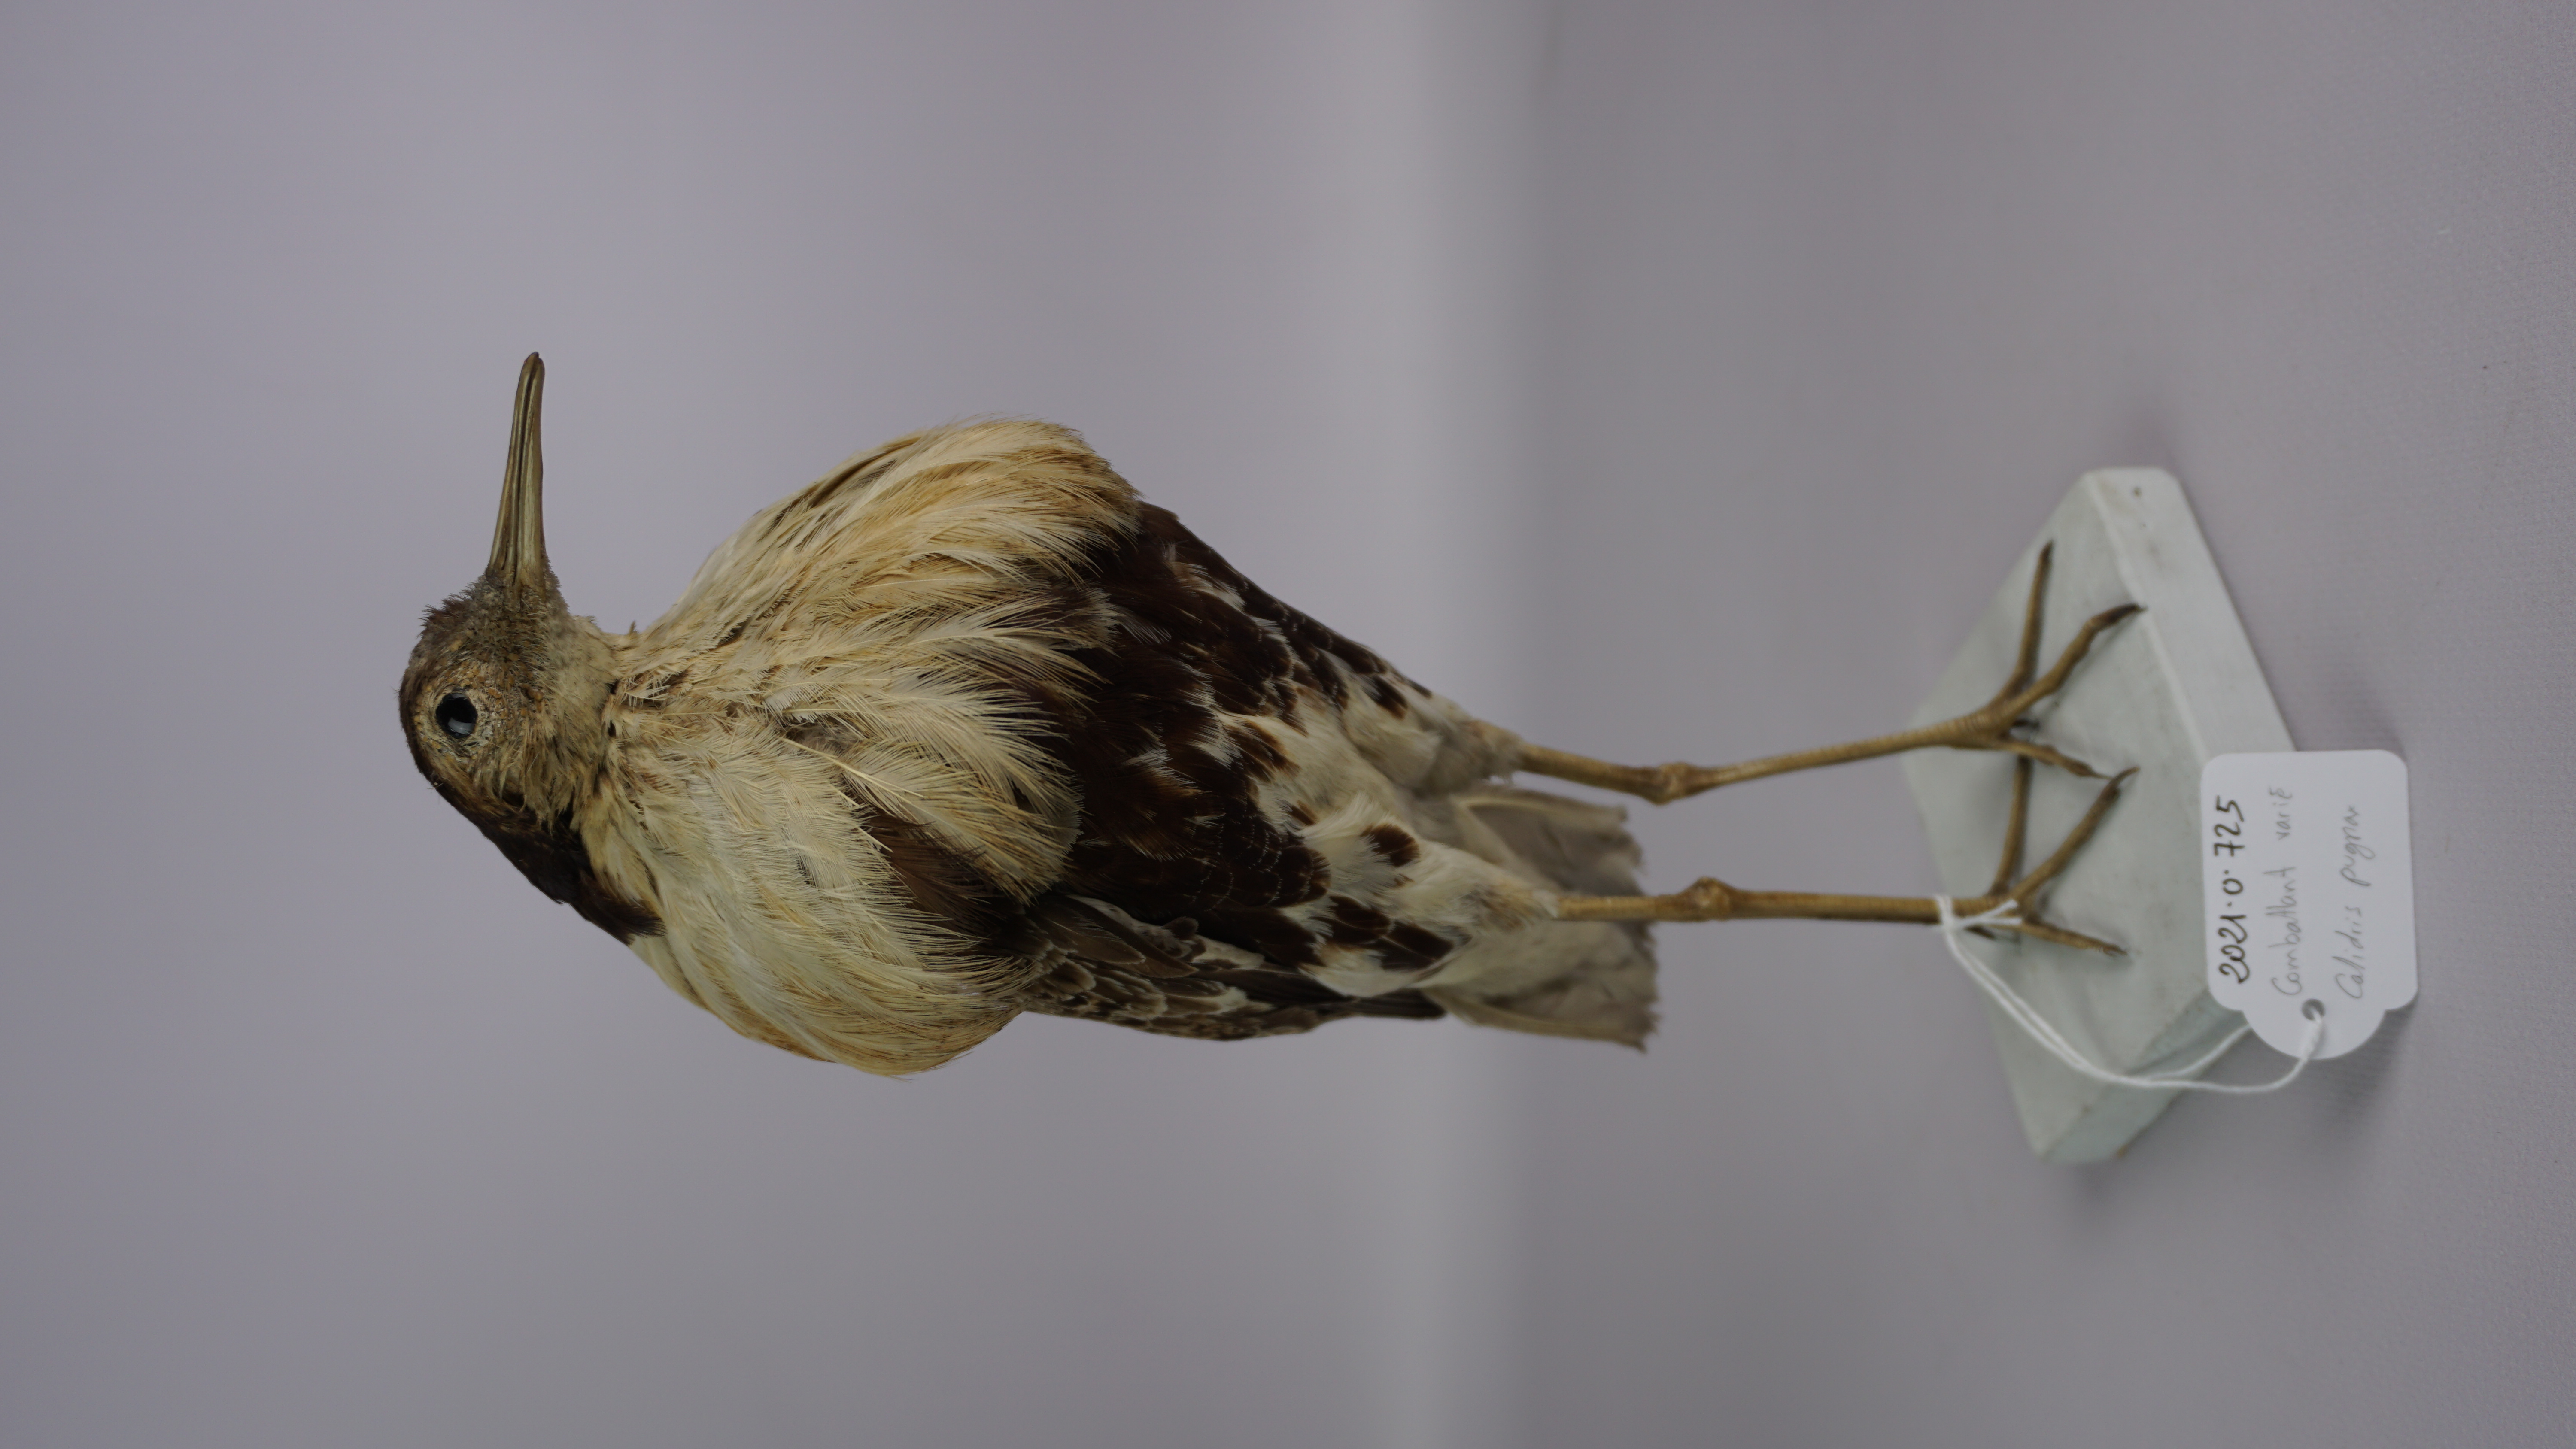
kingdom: Animalia
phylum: Chordata
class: Aves
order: Charadriiformes
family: Scolopacidae
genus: Calidris
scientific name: Calidris pugnax
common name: Ruff
